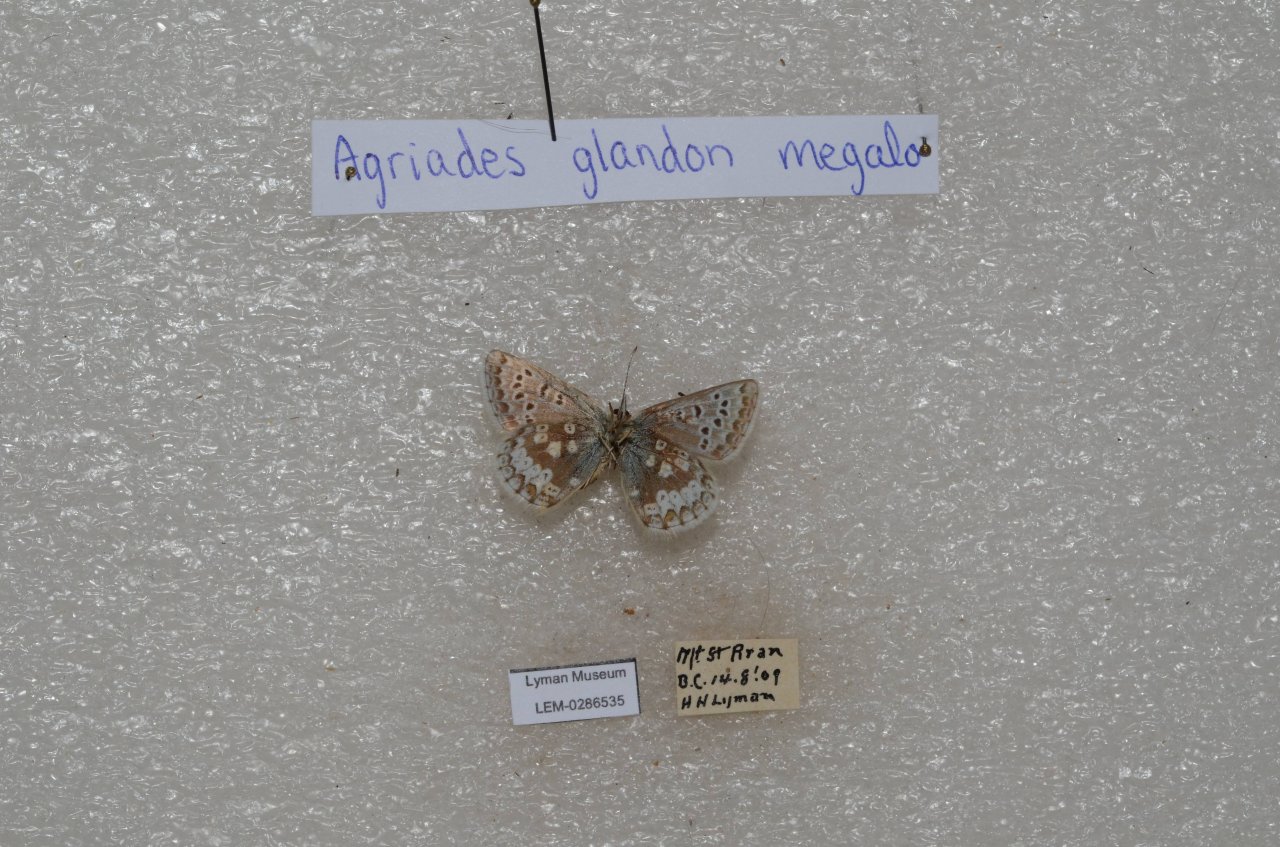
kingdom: Animalia
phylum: Arthropoda
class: Insecta
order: Lepidoptera
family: Lycaenidae
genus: Agriades
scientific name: Agriades glandon
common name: Arctic Blue
